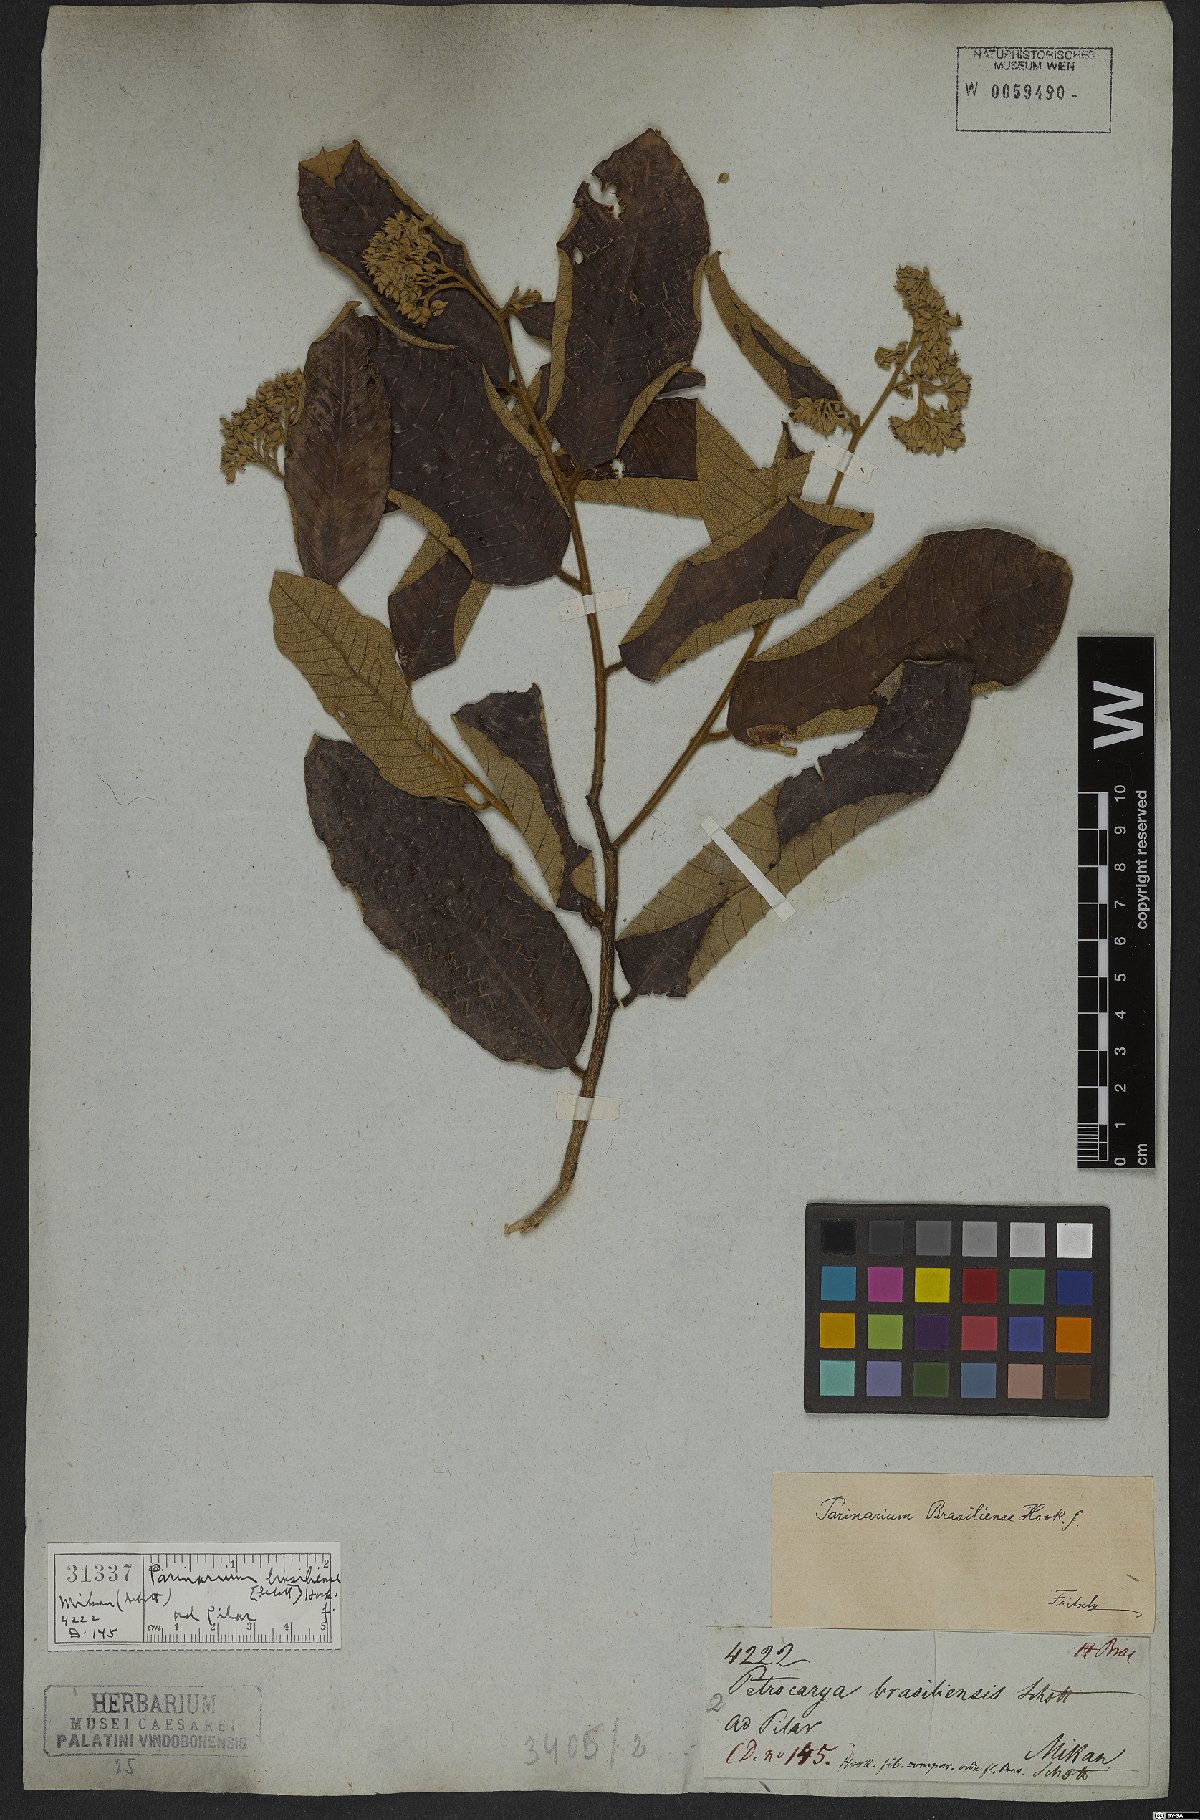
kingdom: Plantae
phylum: Tracheophyta
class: Magnoliopsida
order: Malpighiales
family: Chrysobalanaceae
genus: Parinari
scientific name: Parinari brasiliensis
